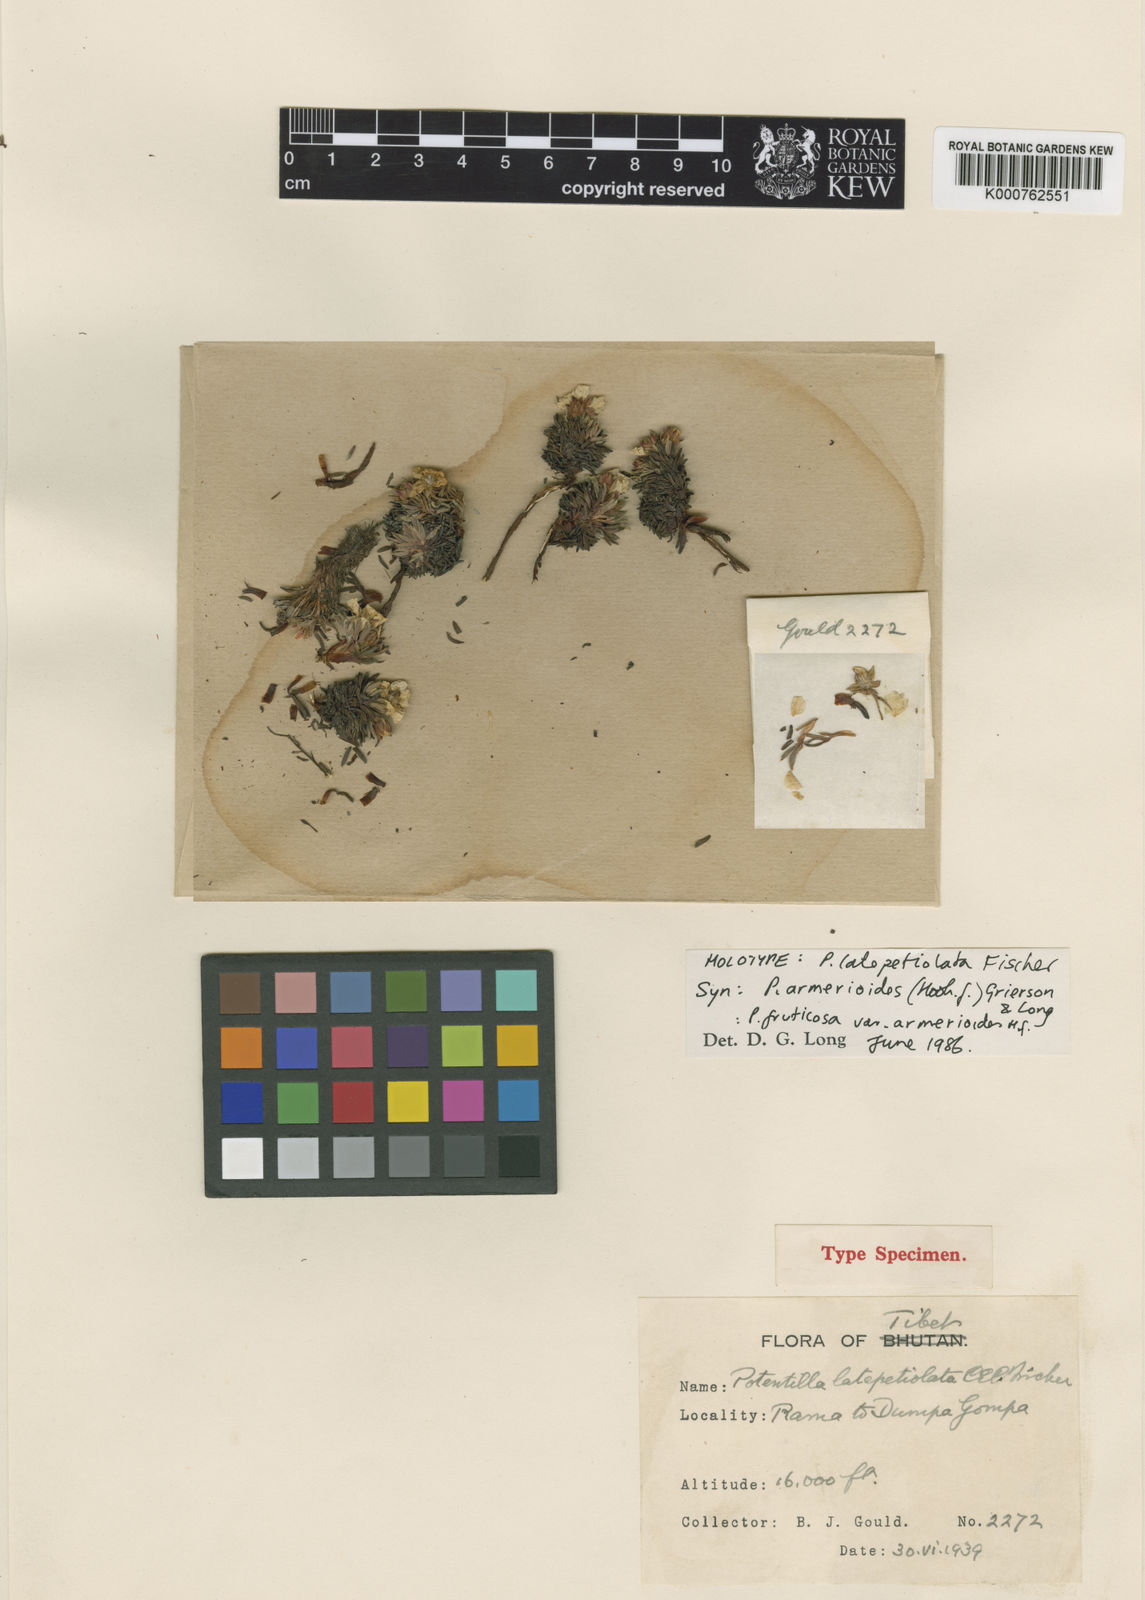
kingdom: Plantae
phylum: Tracheophyta
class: Magnoliopsida
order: Rosales
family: Rosaceae
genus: Potentilla
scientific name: Potentilla
